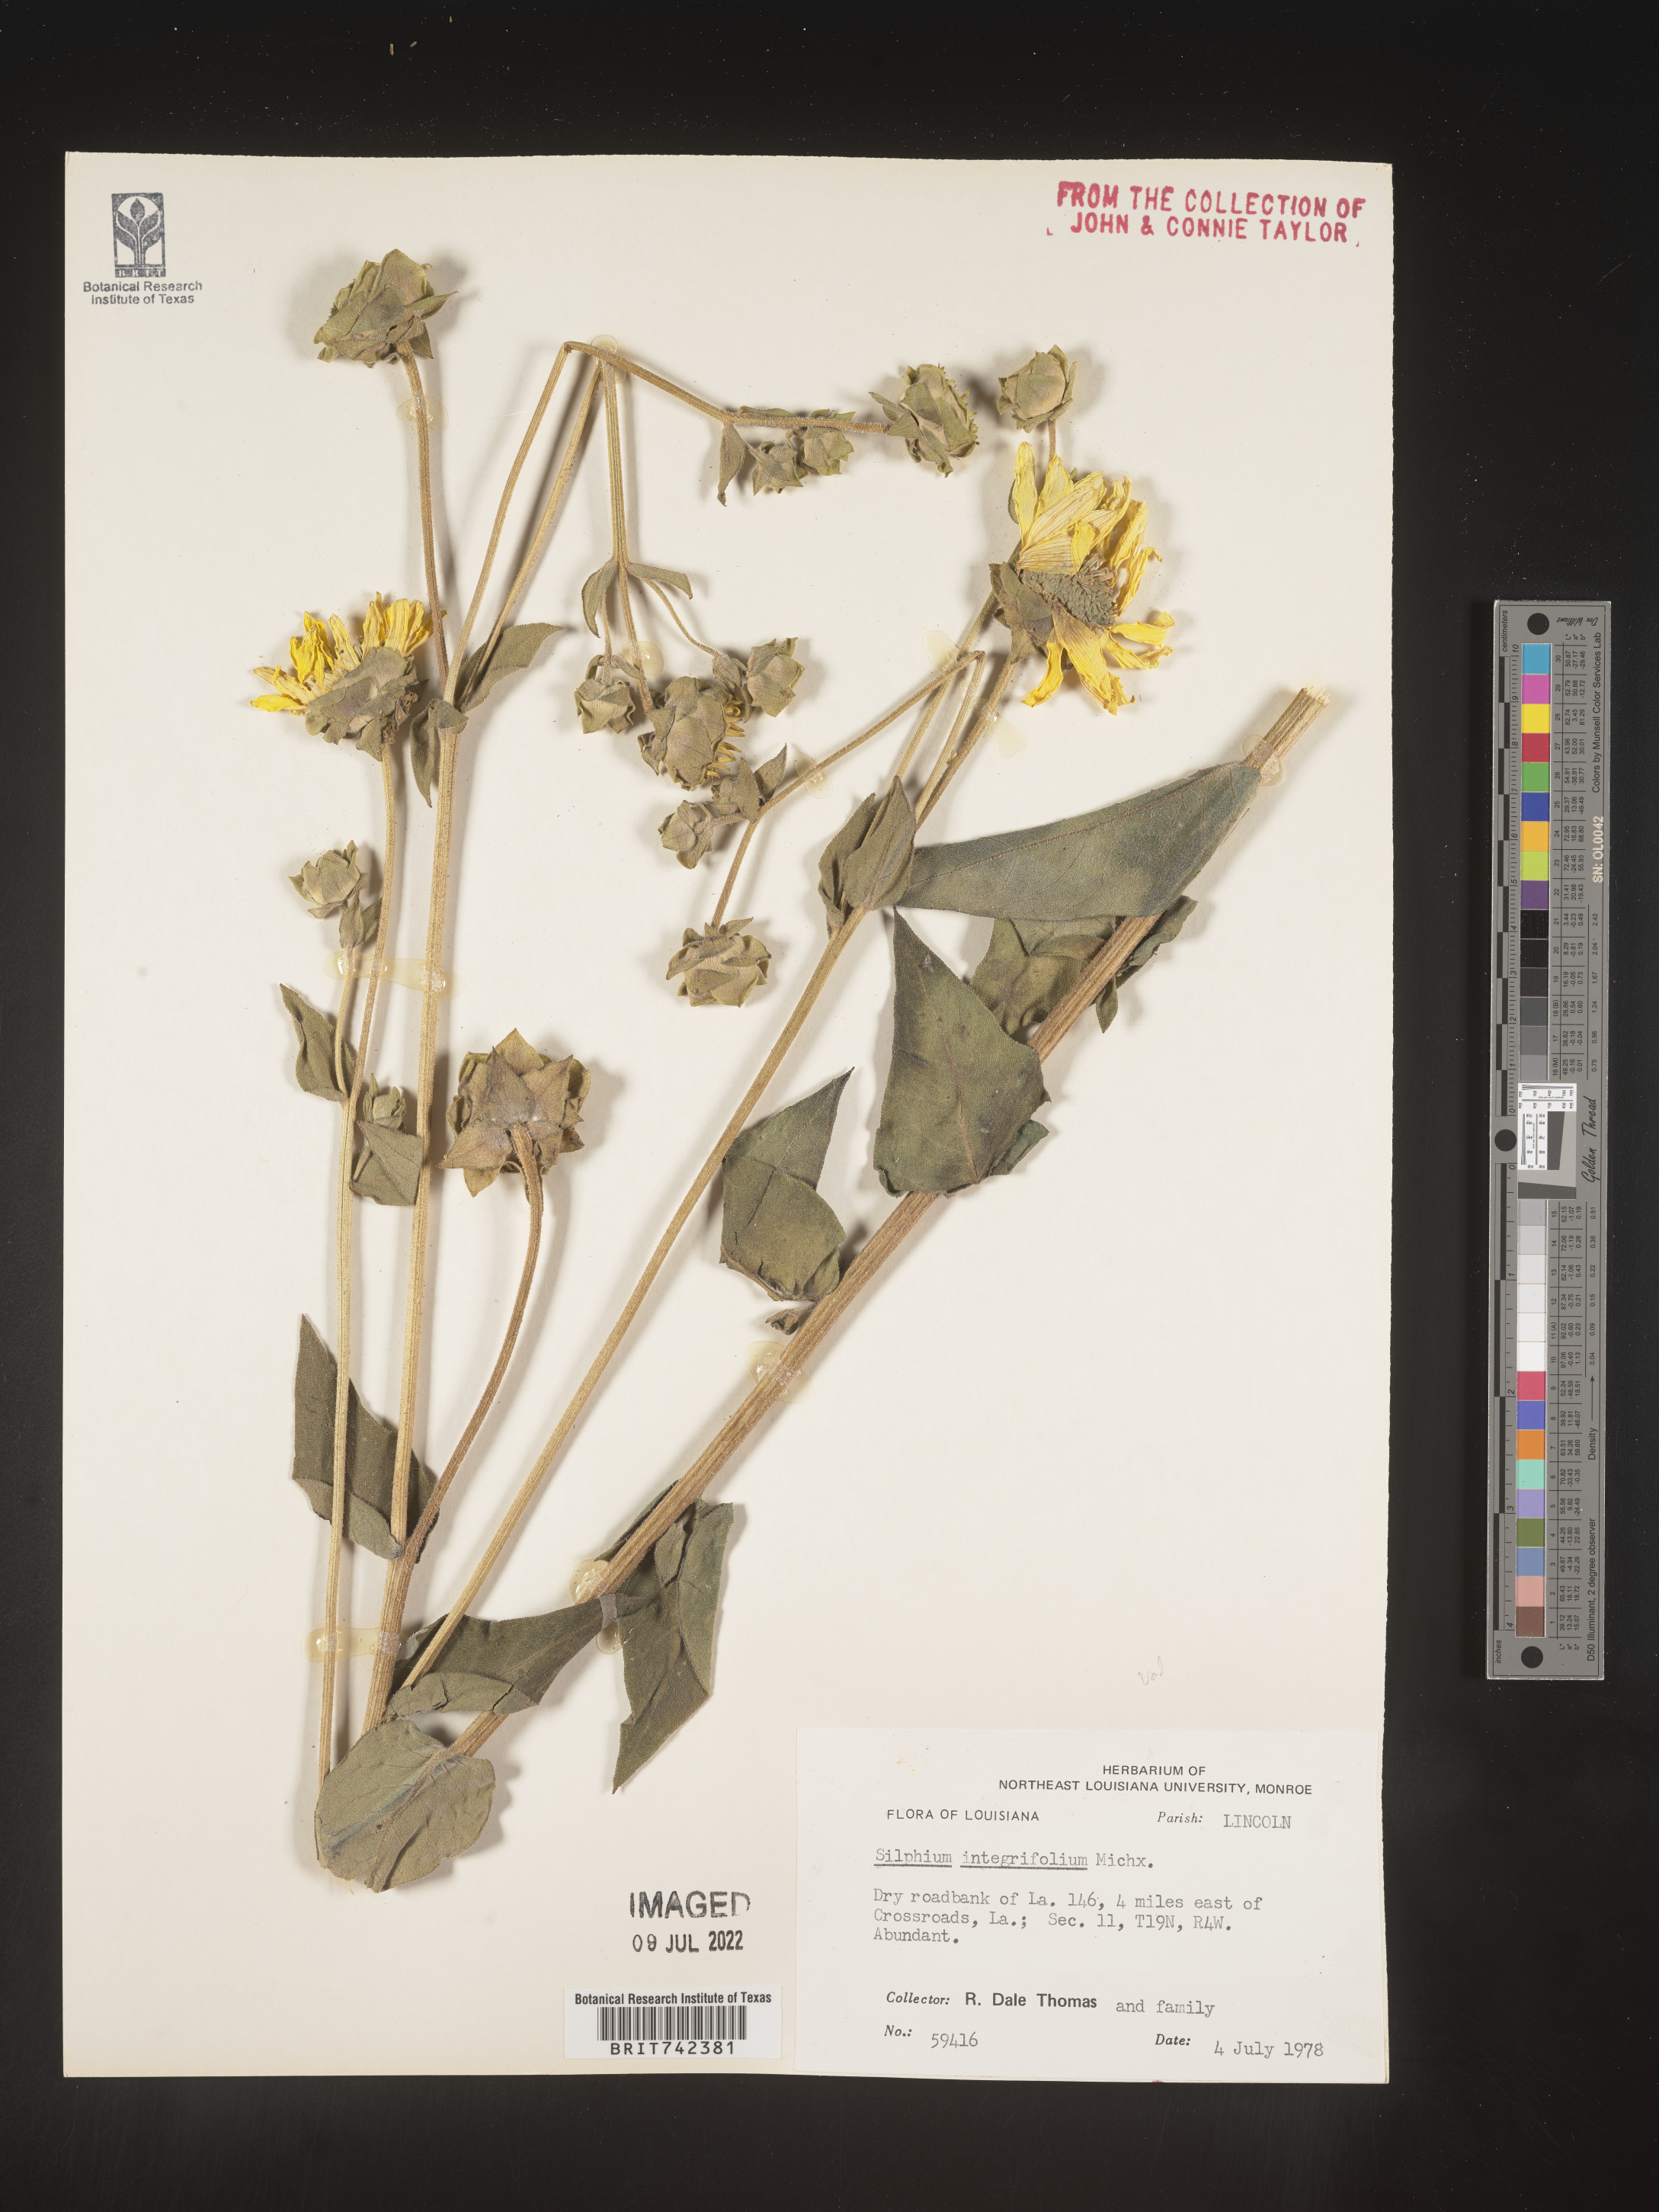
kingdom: Plantae
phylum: Tracheophyta
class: Magnoliopsida
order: Asterales
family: Asteraceae
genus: Silphium
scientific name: Silphium radula
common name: Roughleaf rosinweed
